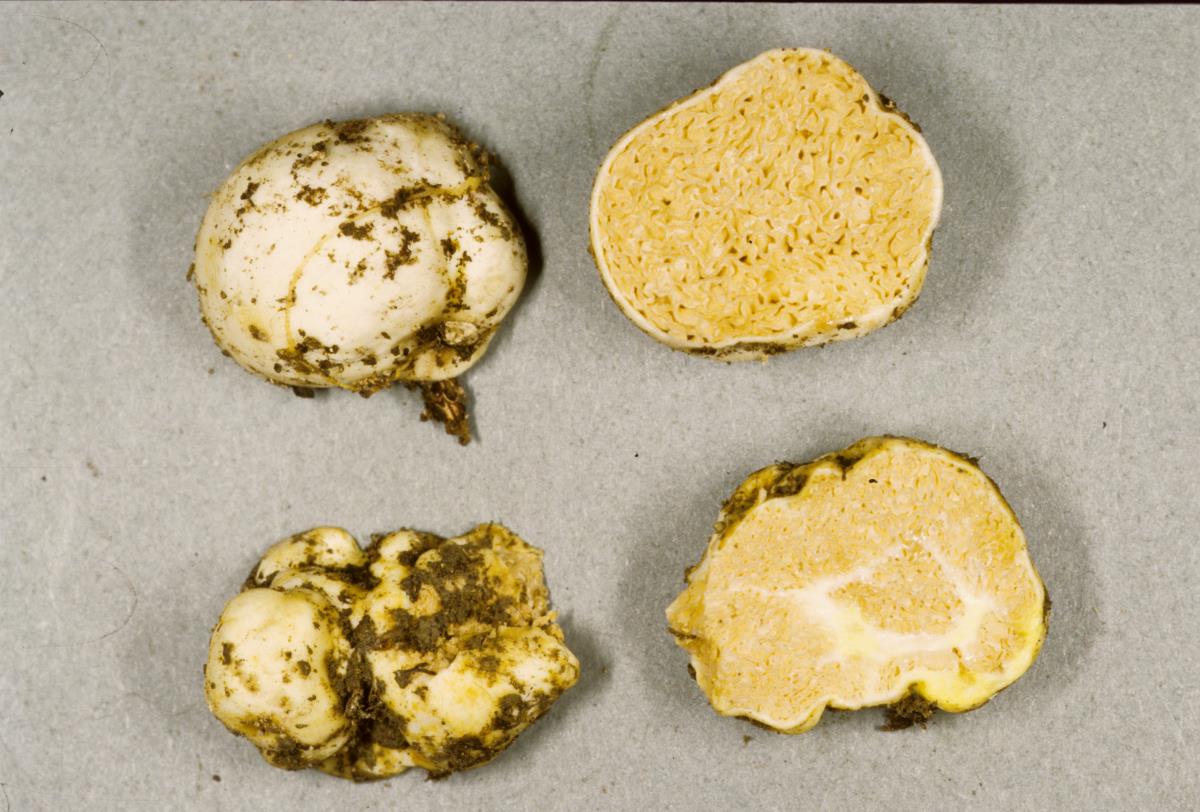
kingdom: Fungi
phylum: Basidiomycota
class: Agaricomycetes
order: Russulales
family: Russulaceae
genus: Zelleromyces
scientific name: Zelleromyces
